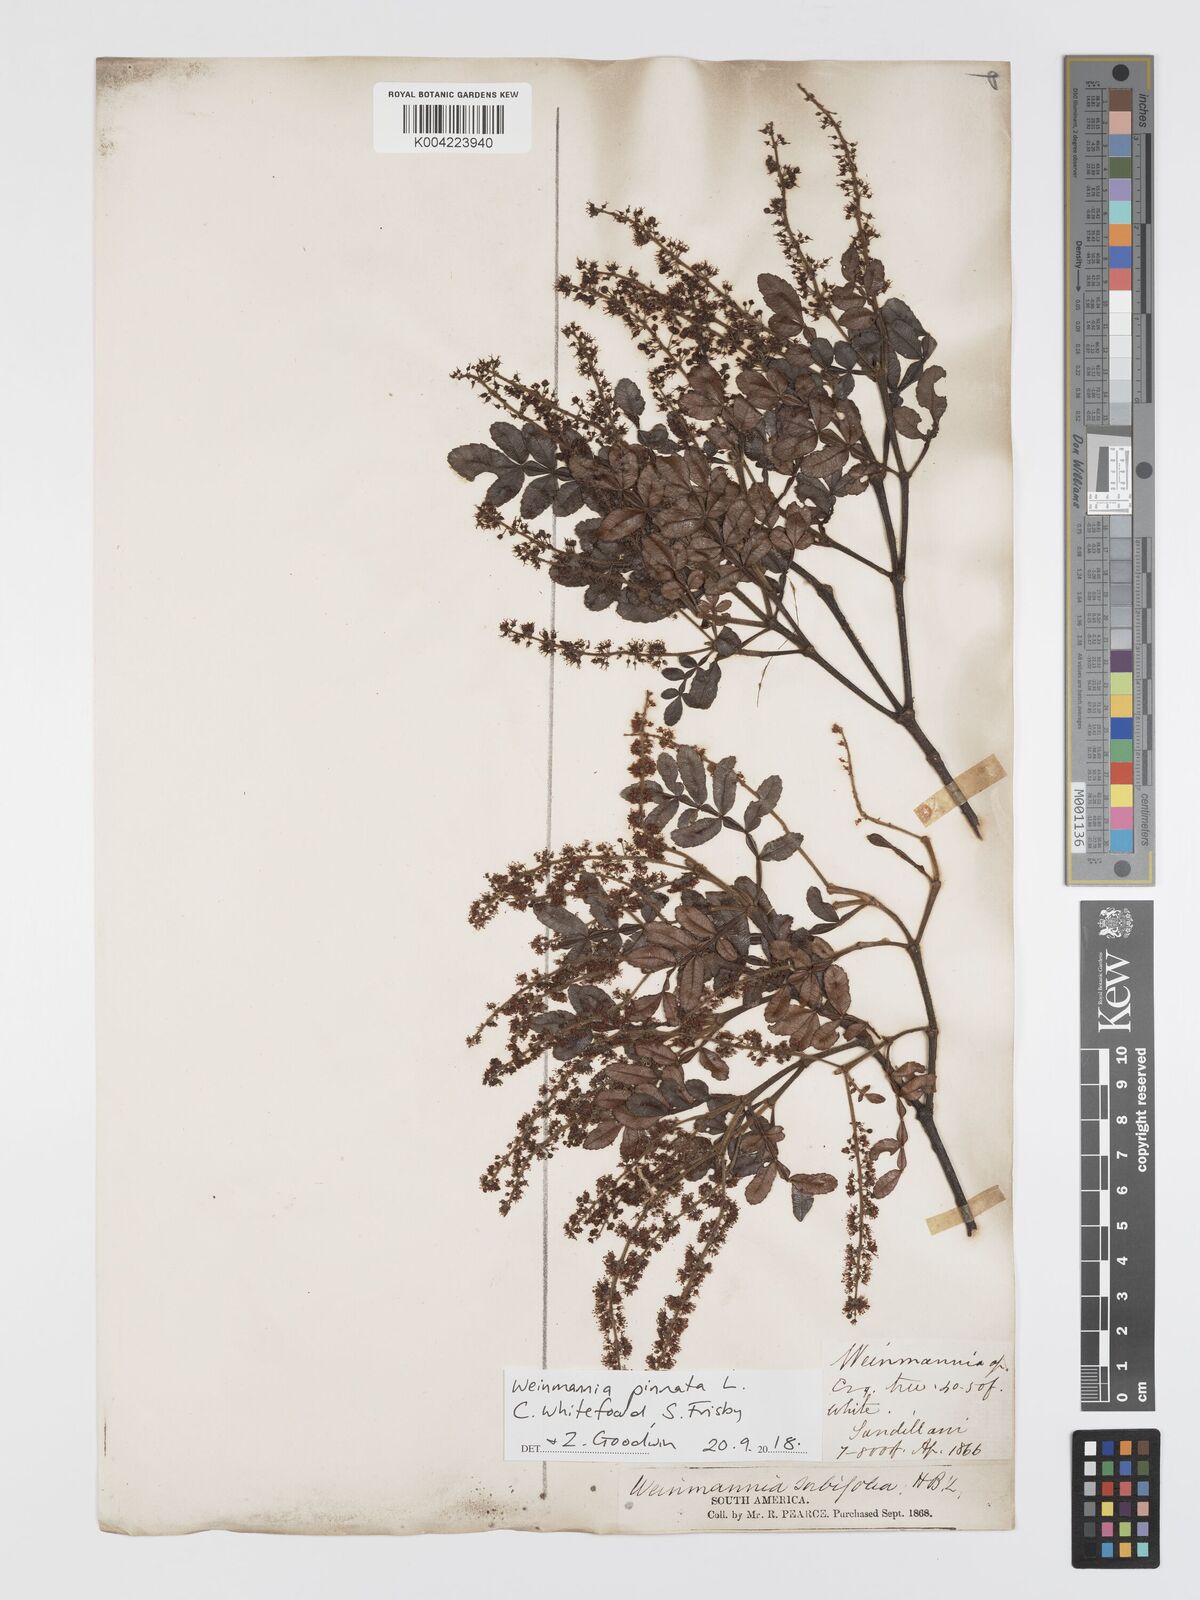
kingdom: Plantae
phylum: Tracheophyta
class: Magnoliopsida
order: Oxalidales
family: Cunoniaceae
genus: Weinmannia
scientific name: Weinmannia pinnata
